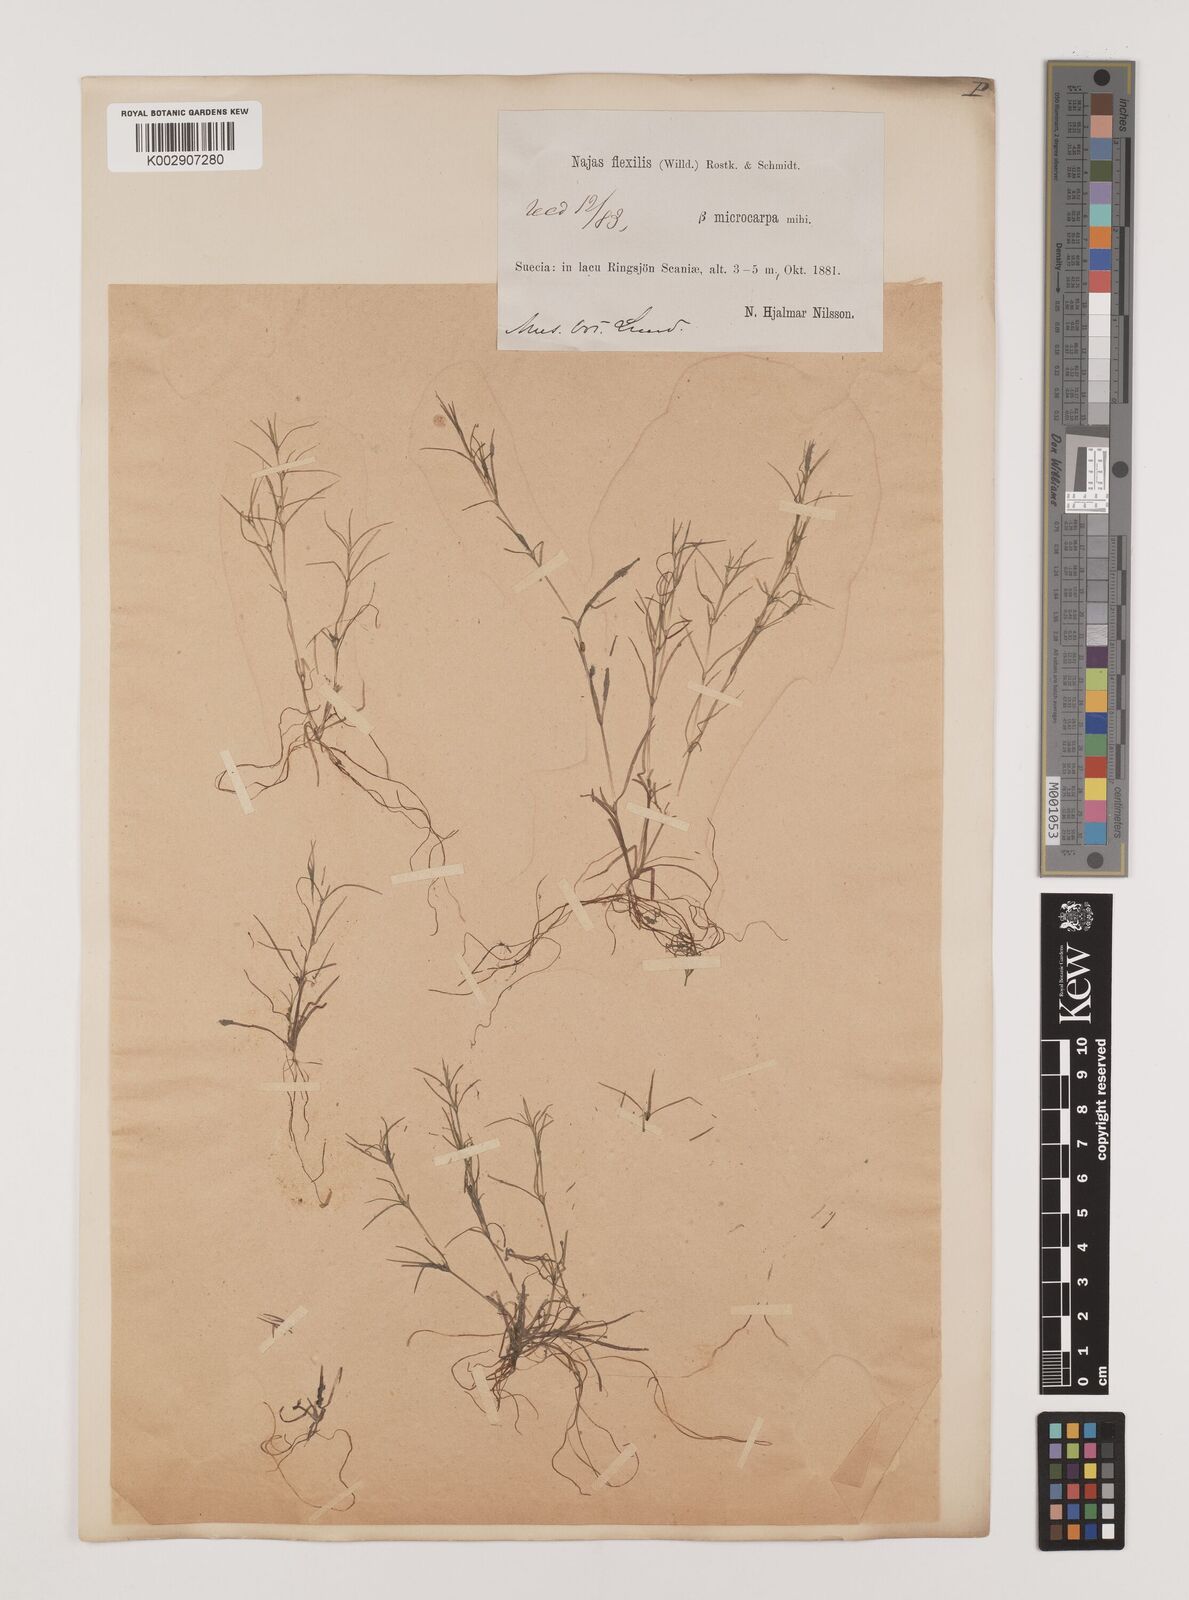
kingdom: Plantae
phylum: Tracheophyta
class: Liliopsida
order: Alismatales
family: Hydrocharitaceae
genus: Najas
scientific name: Najas flexilis
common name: Slender naiad
